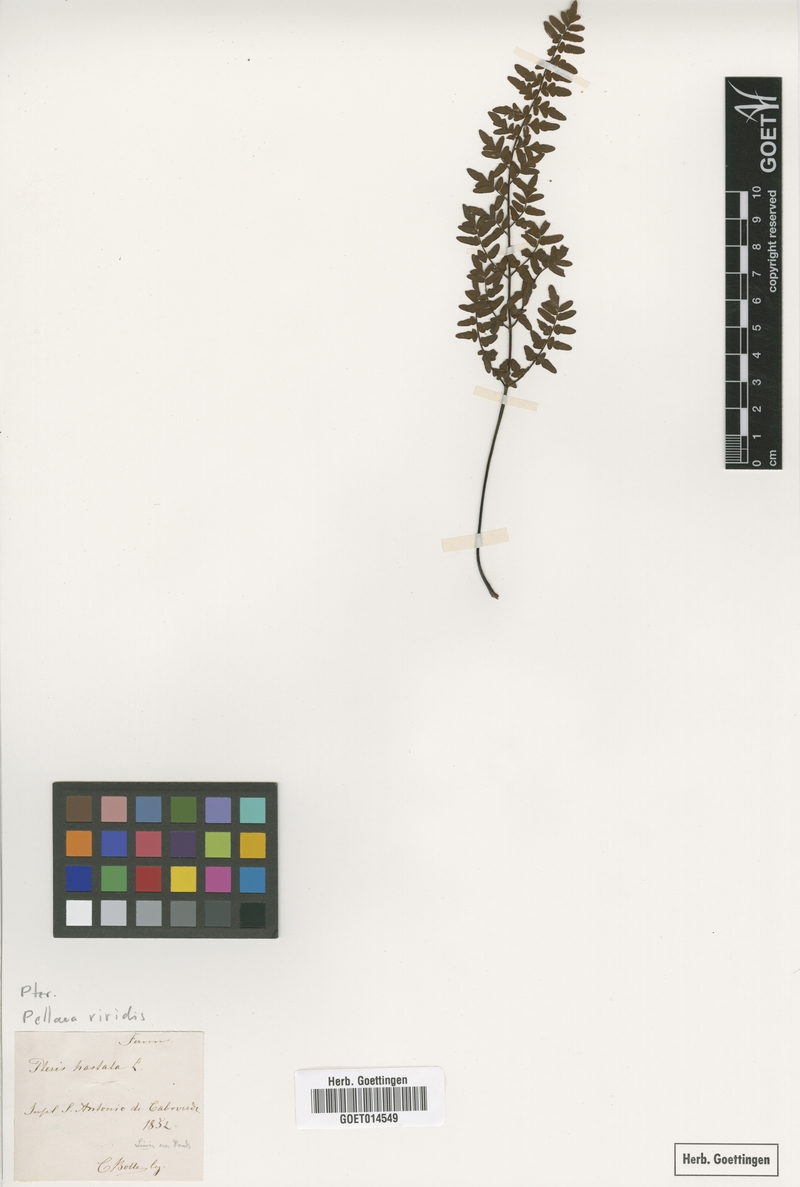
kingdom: Plantae
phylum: Tracheophyta
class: Polypodiopsida
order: Polypodiales
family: Pteridaceae
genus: Cheilanthes
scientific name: Cheilanthes viridis
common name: Green cliffbrake
